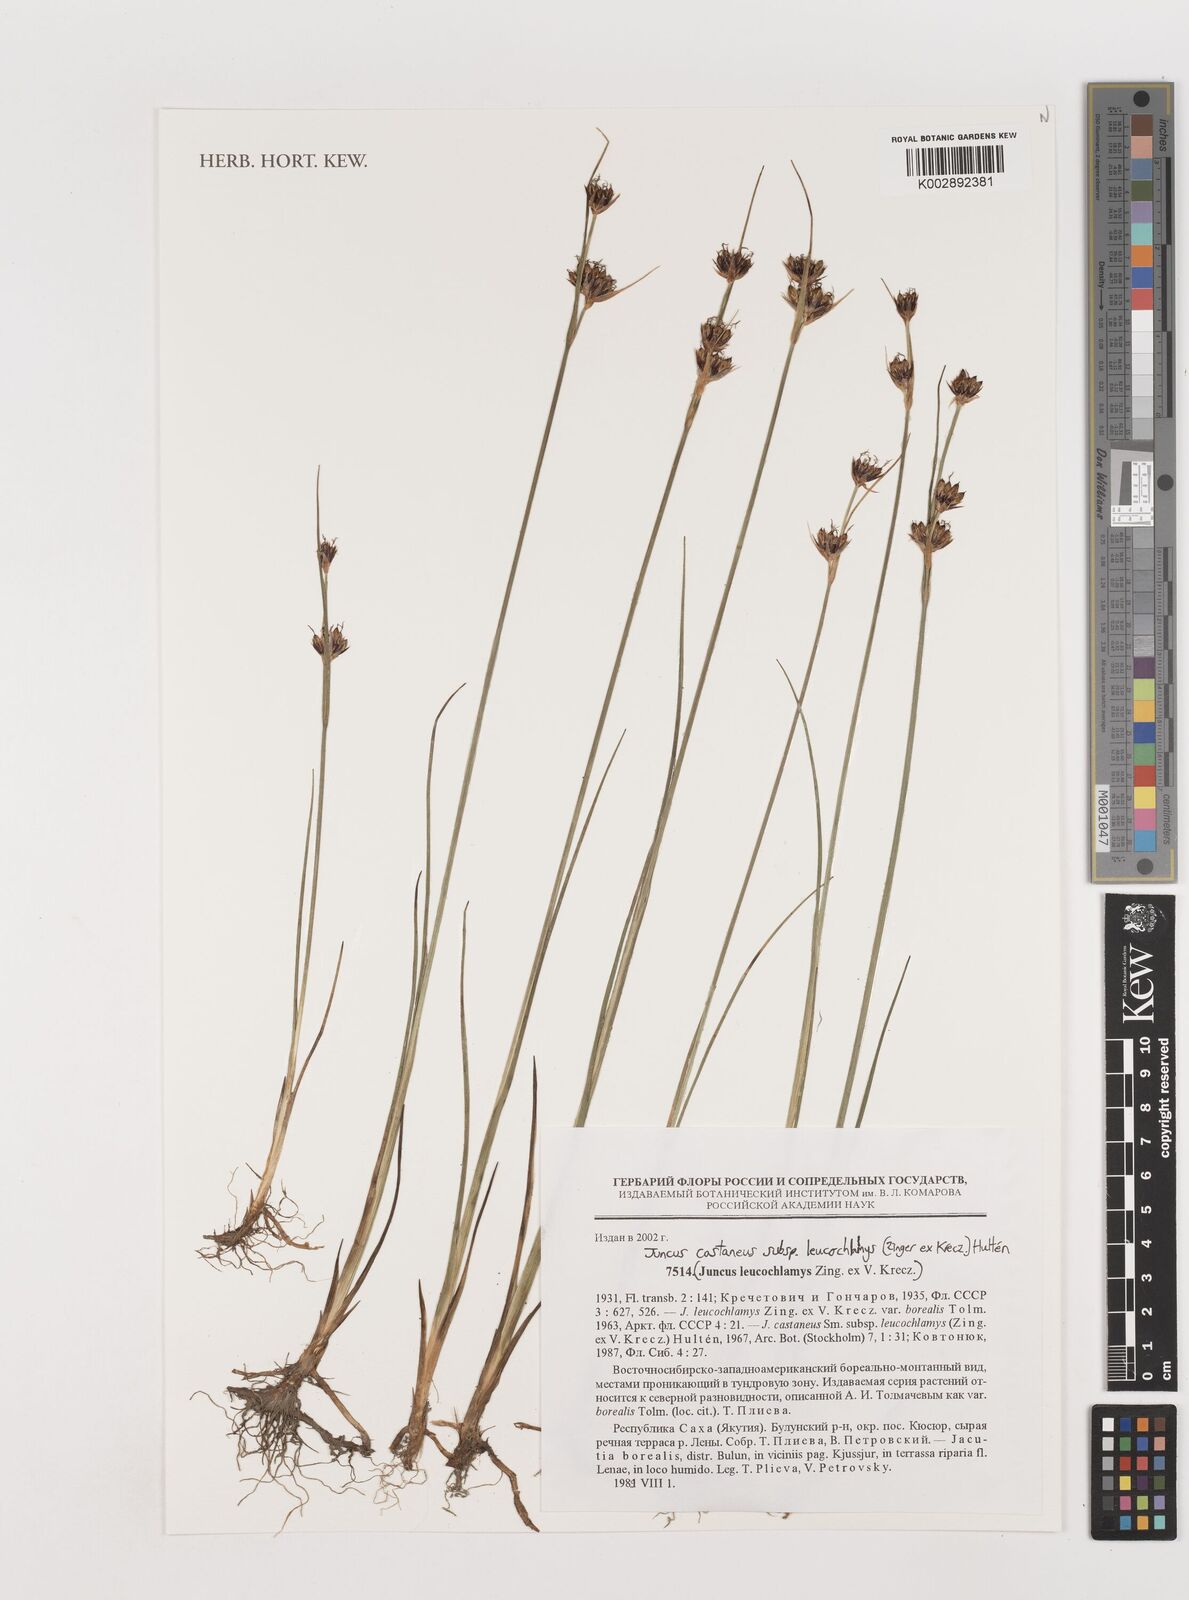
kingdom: Plantae
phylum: Tracheophyta
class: Liliopsida
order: Poales
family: Juncaceae
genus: Juncus
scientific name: Juncus castaneus
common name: Chestnut rush
